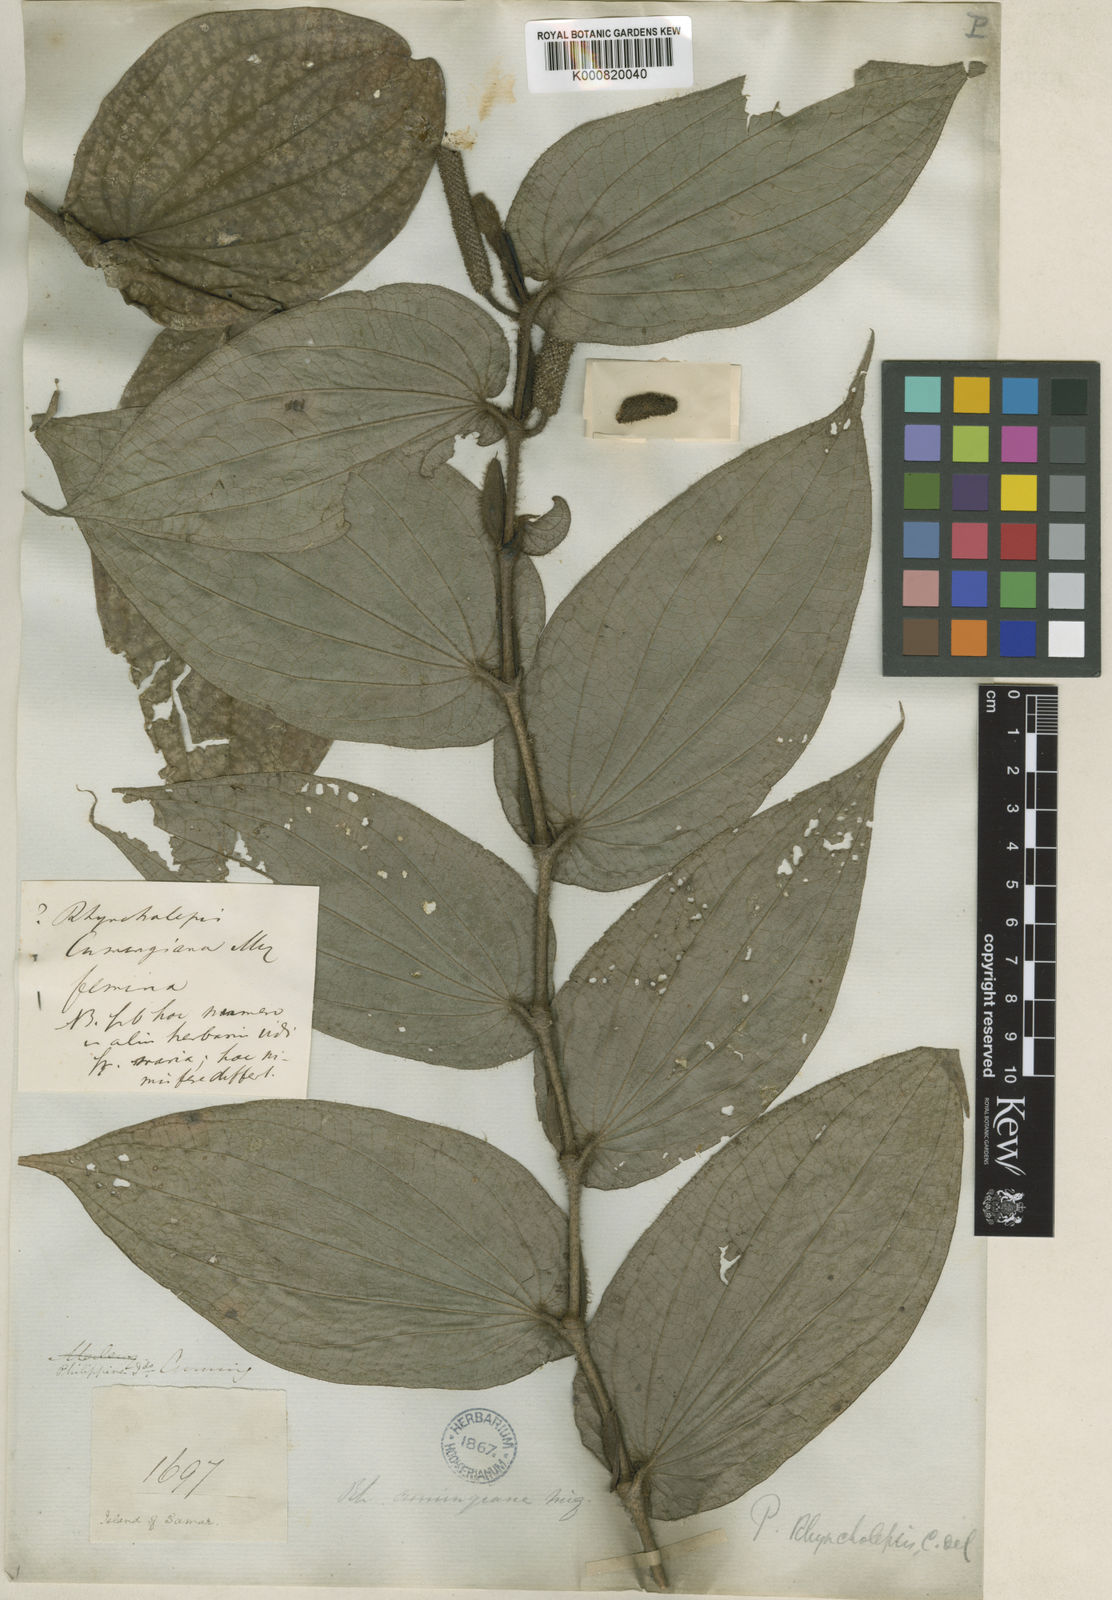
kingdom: Plantae
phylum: Tracheophyta
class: Magnoliopsida
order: Piperales
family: Piperaceae
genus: Piper
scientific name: Piper brevicuspe
